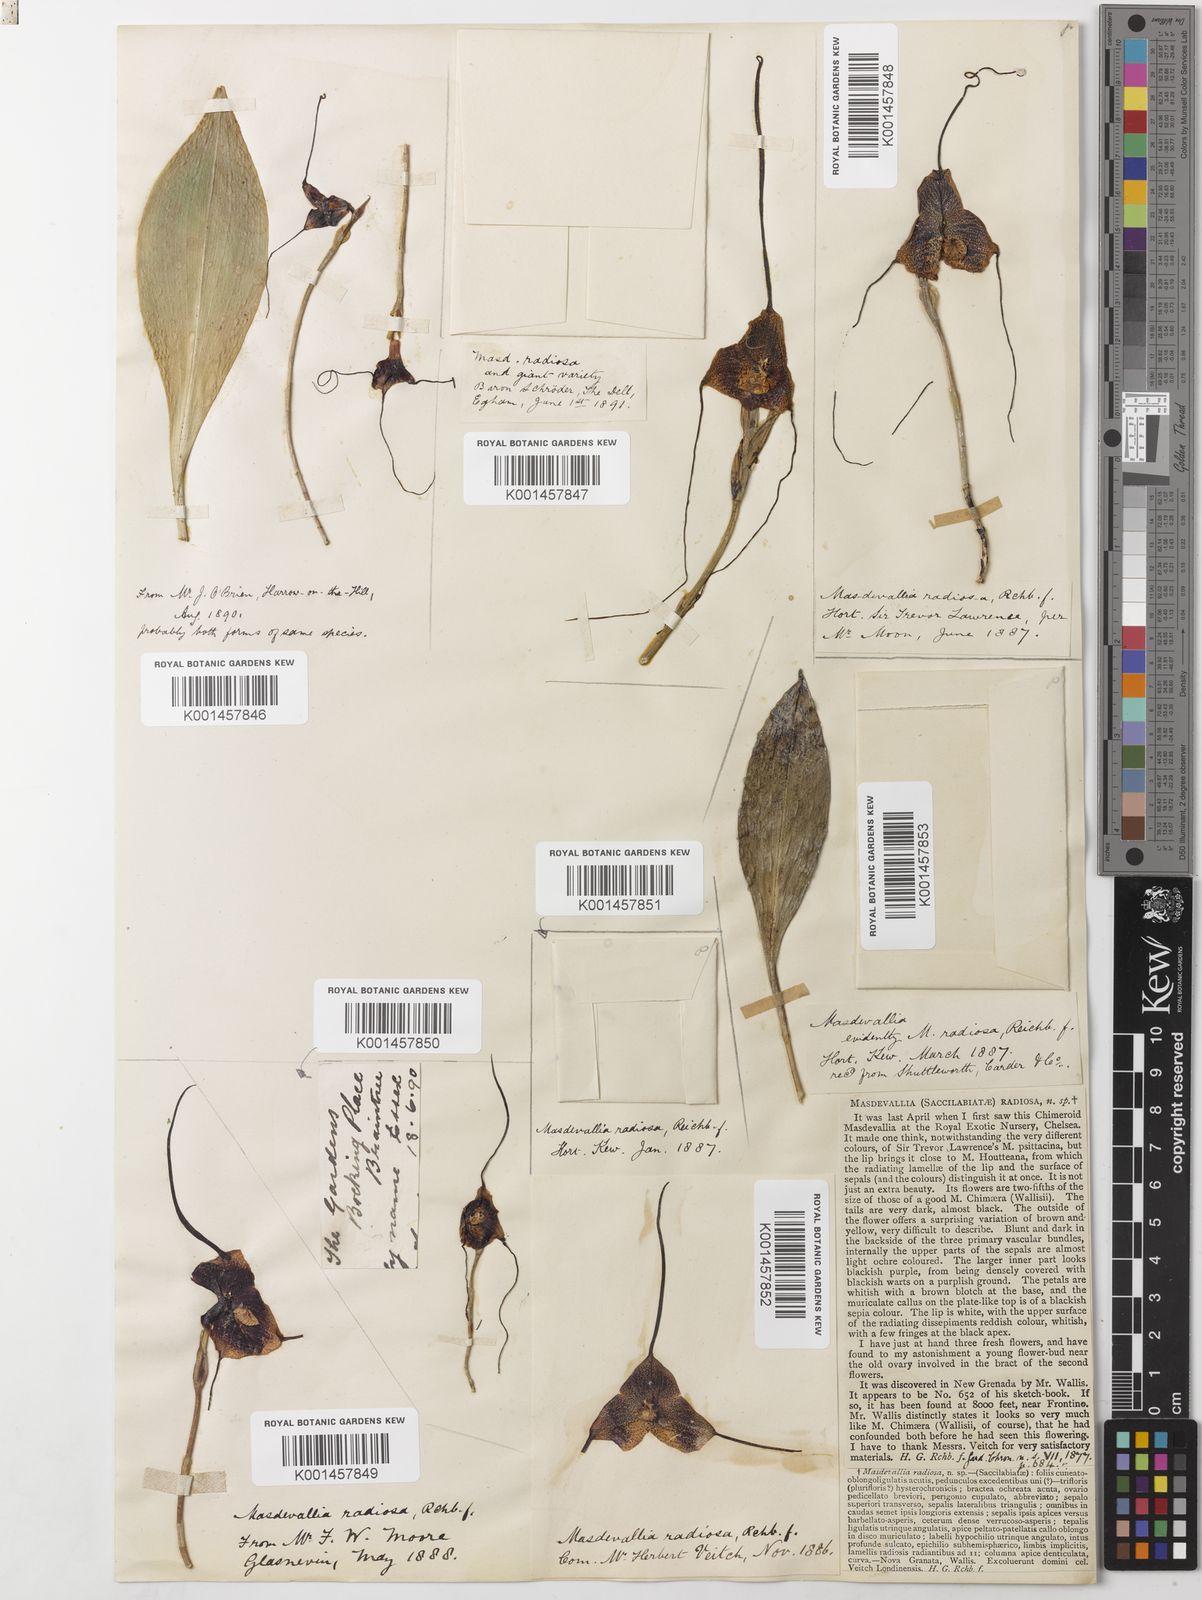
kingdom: Plantae
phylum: Tracheophyta
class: Liliopsida
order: Asparagales
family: Orchidaceae
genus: Dracula
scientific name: Dracula radiosa
